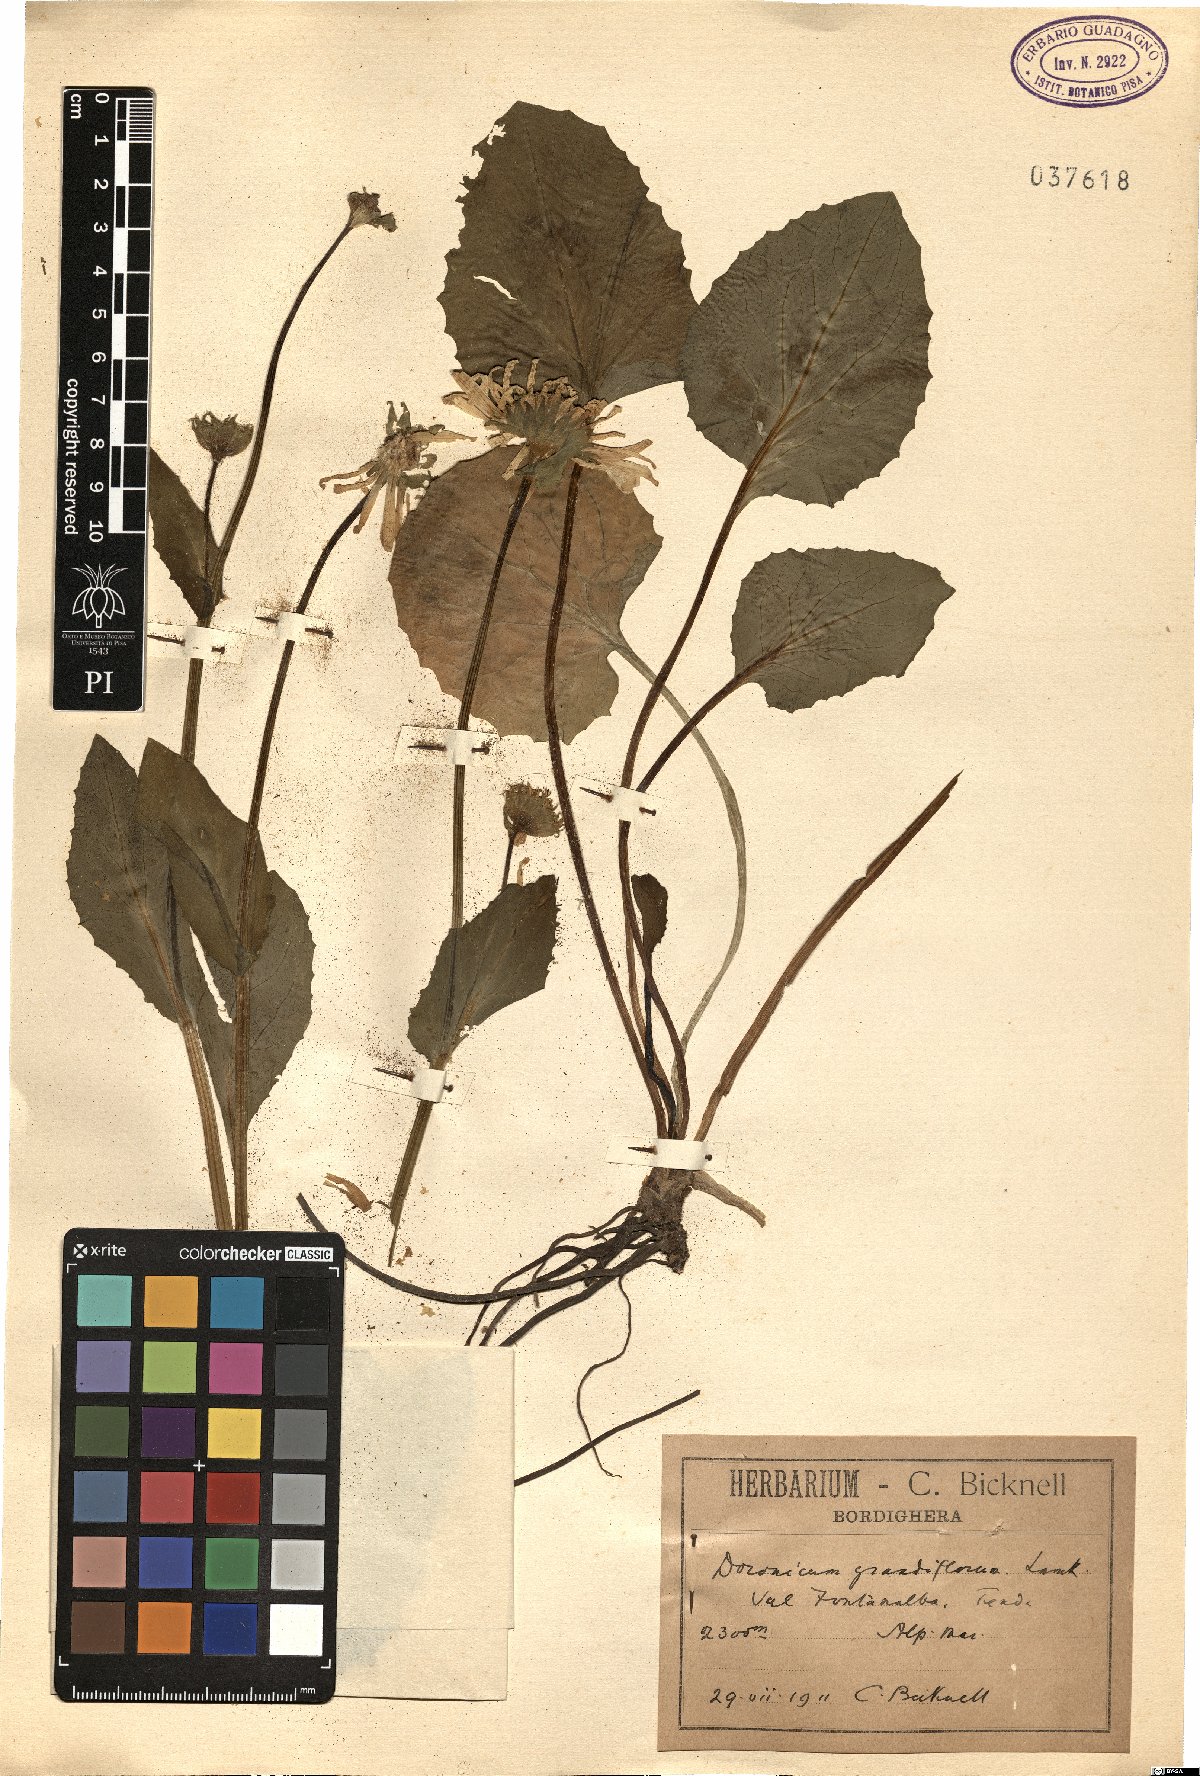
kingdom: Plantae
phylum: Tracheophyta
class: Magnoliopsida
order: Asterales
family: Asteraceae
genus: Doronicum
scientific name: Doronicum grandiflorum
